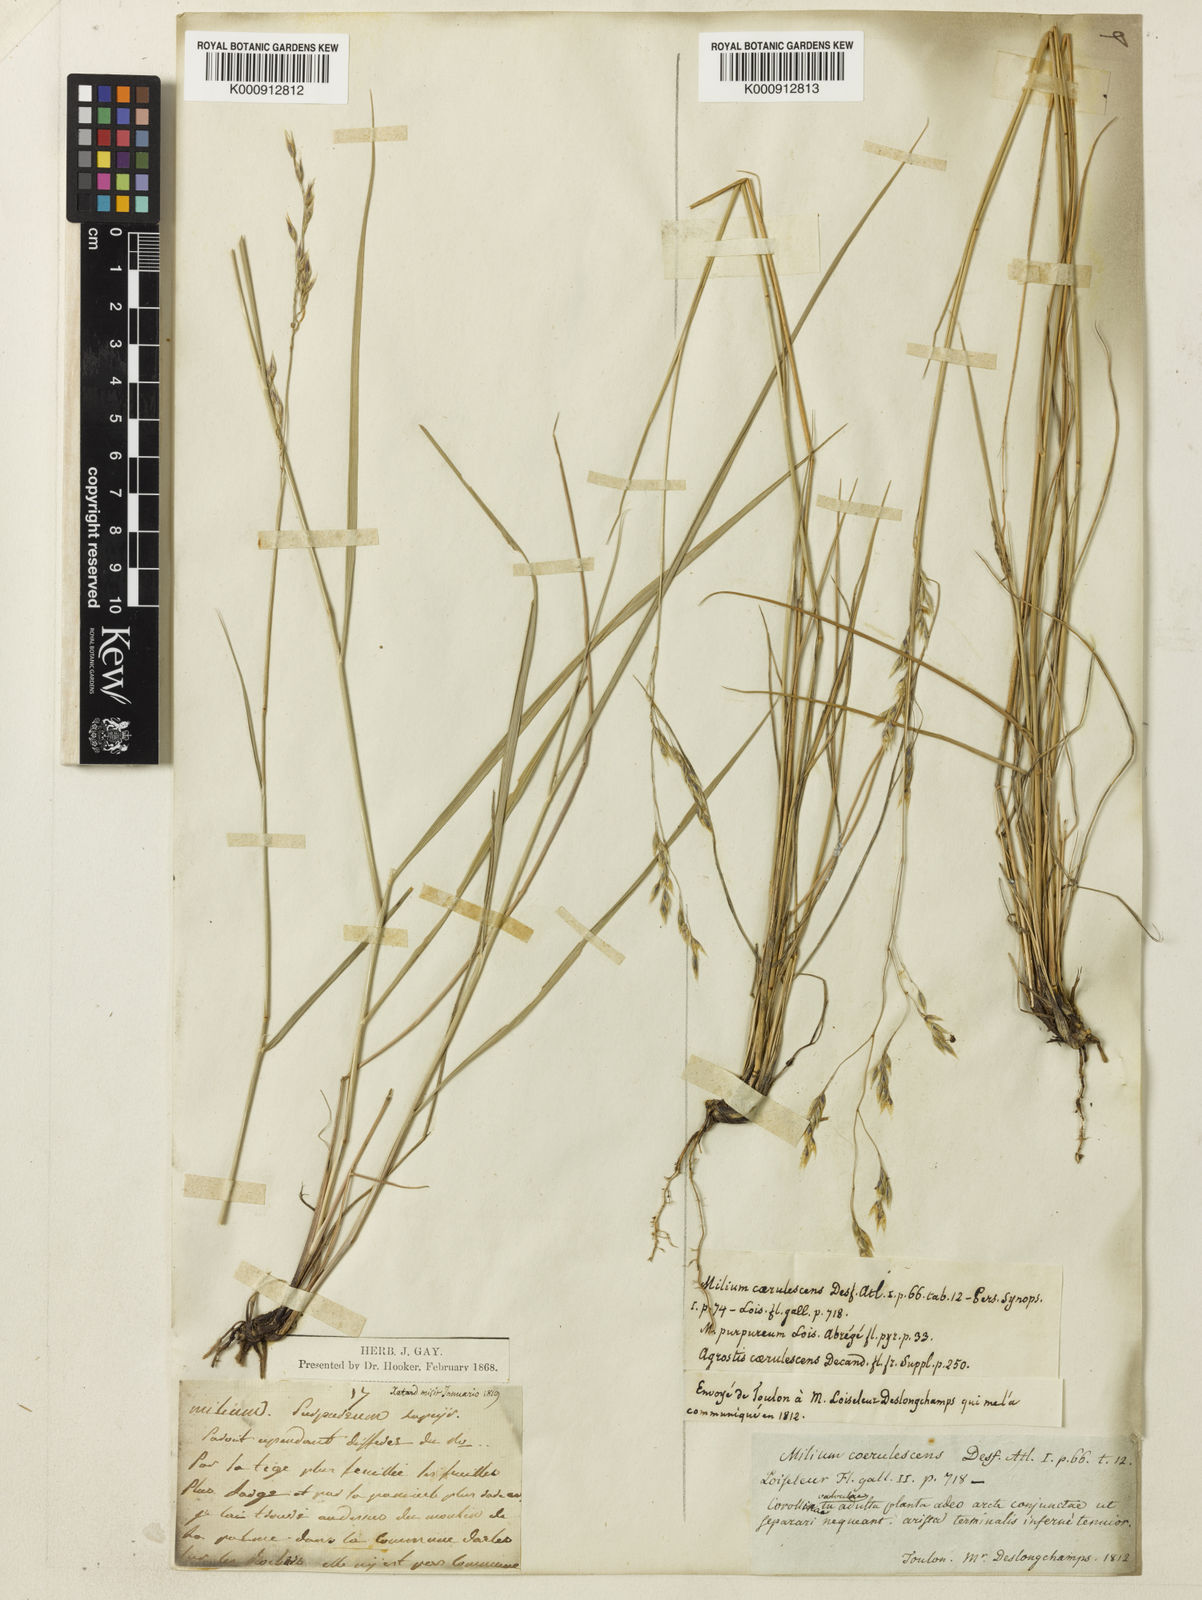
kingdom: Plantae
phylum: Tracheophyta
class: Liliopsida
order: Poales
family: Poaceae
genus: Piptatherum
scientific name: Piptatherum coerulescens
